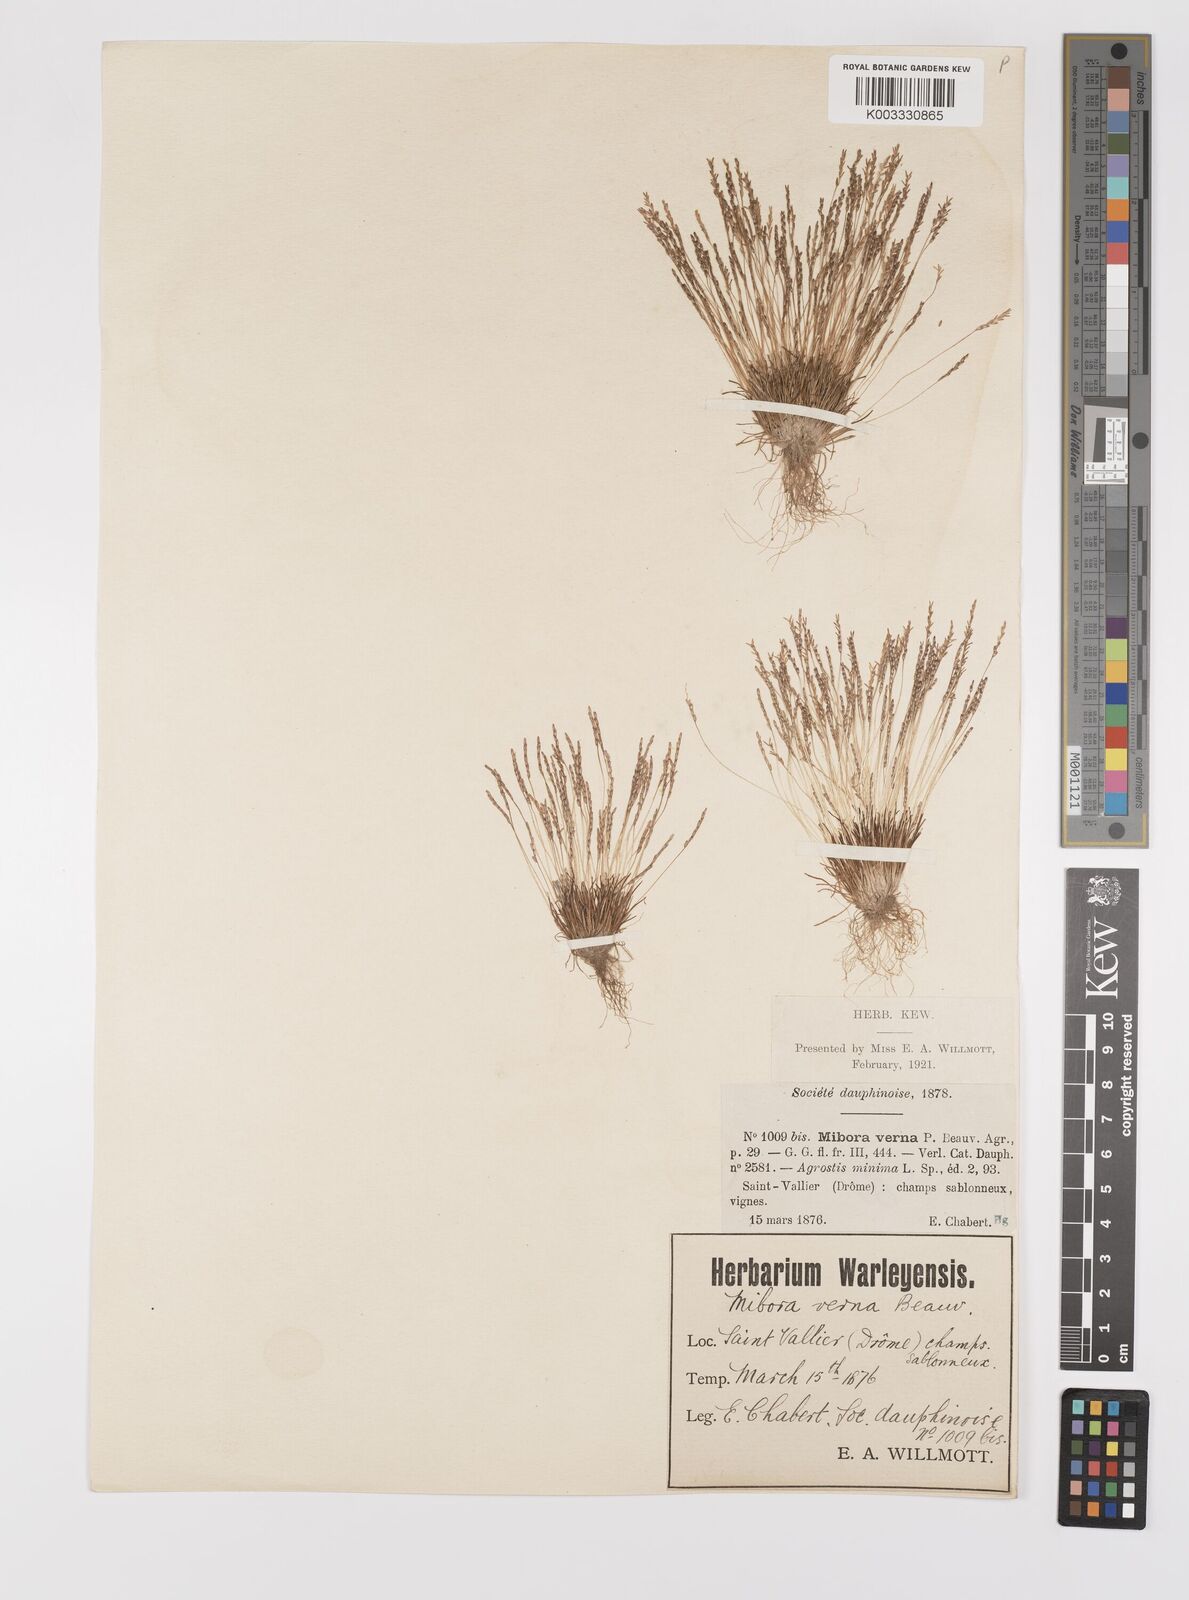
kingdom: Plantae
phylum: Tracheophyta
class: Liliopsida
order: Poales
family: Poaceae
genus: Mibora
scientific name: Mibora minima
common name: Early sand-grass
